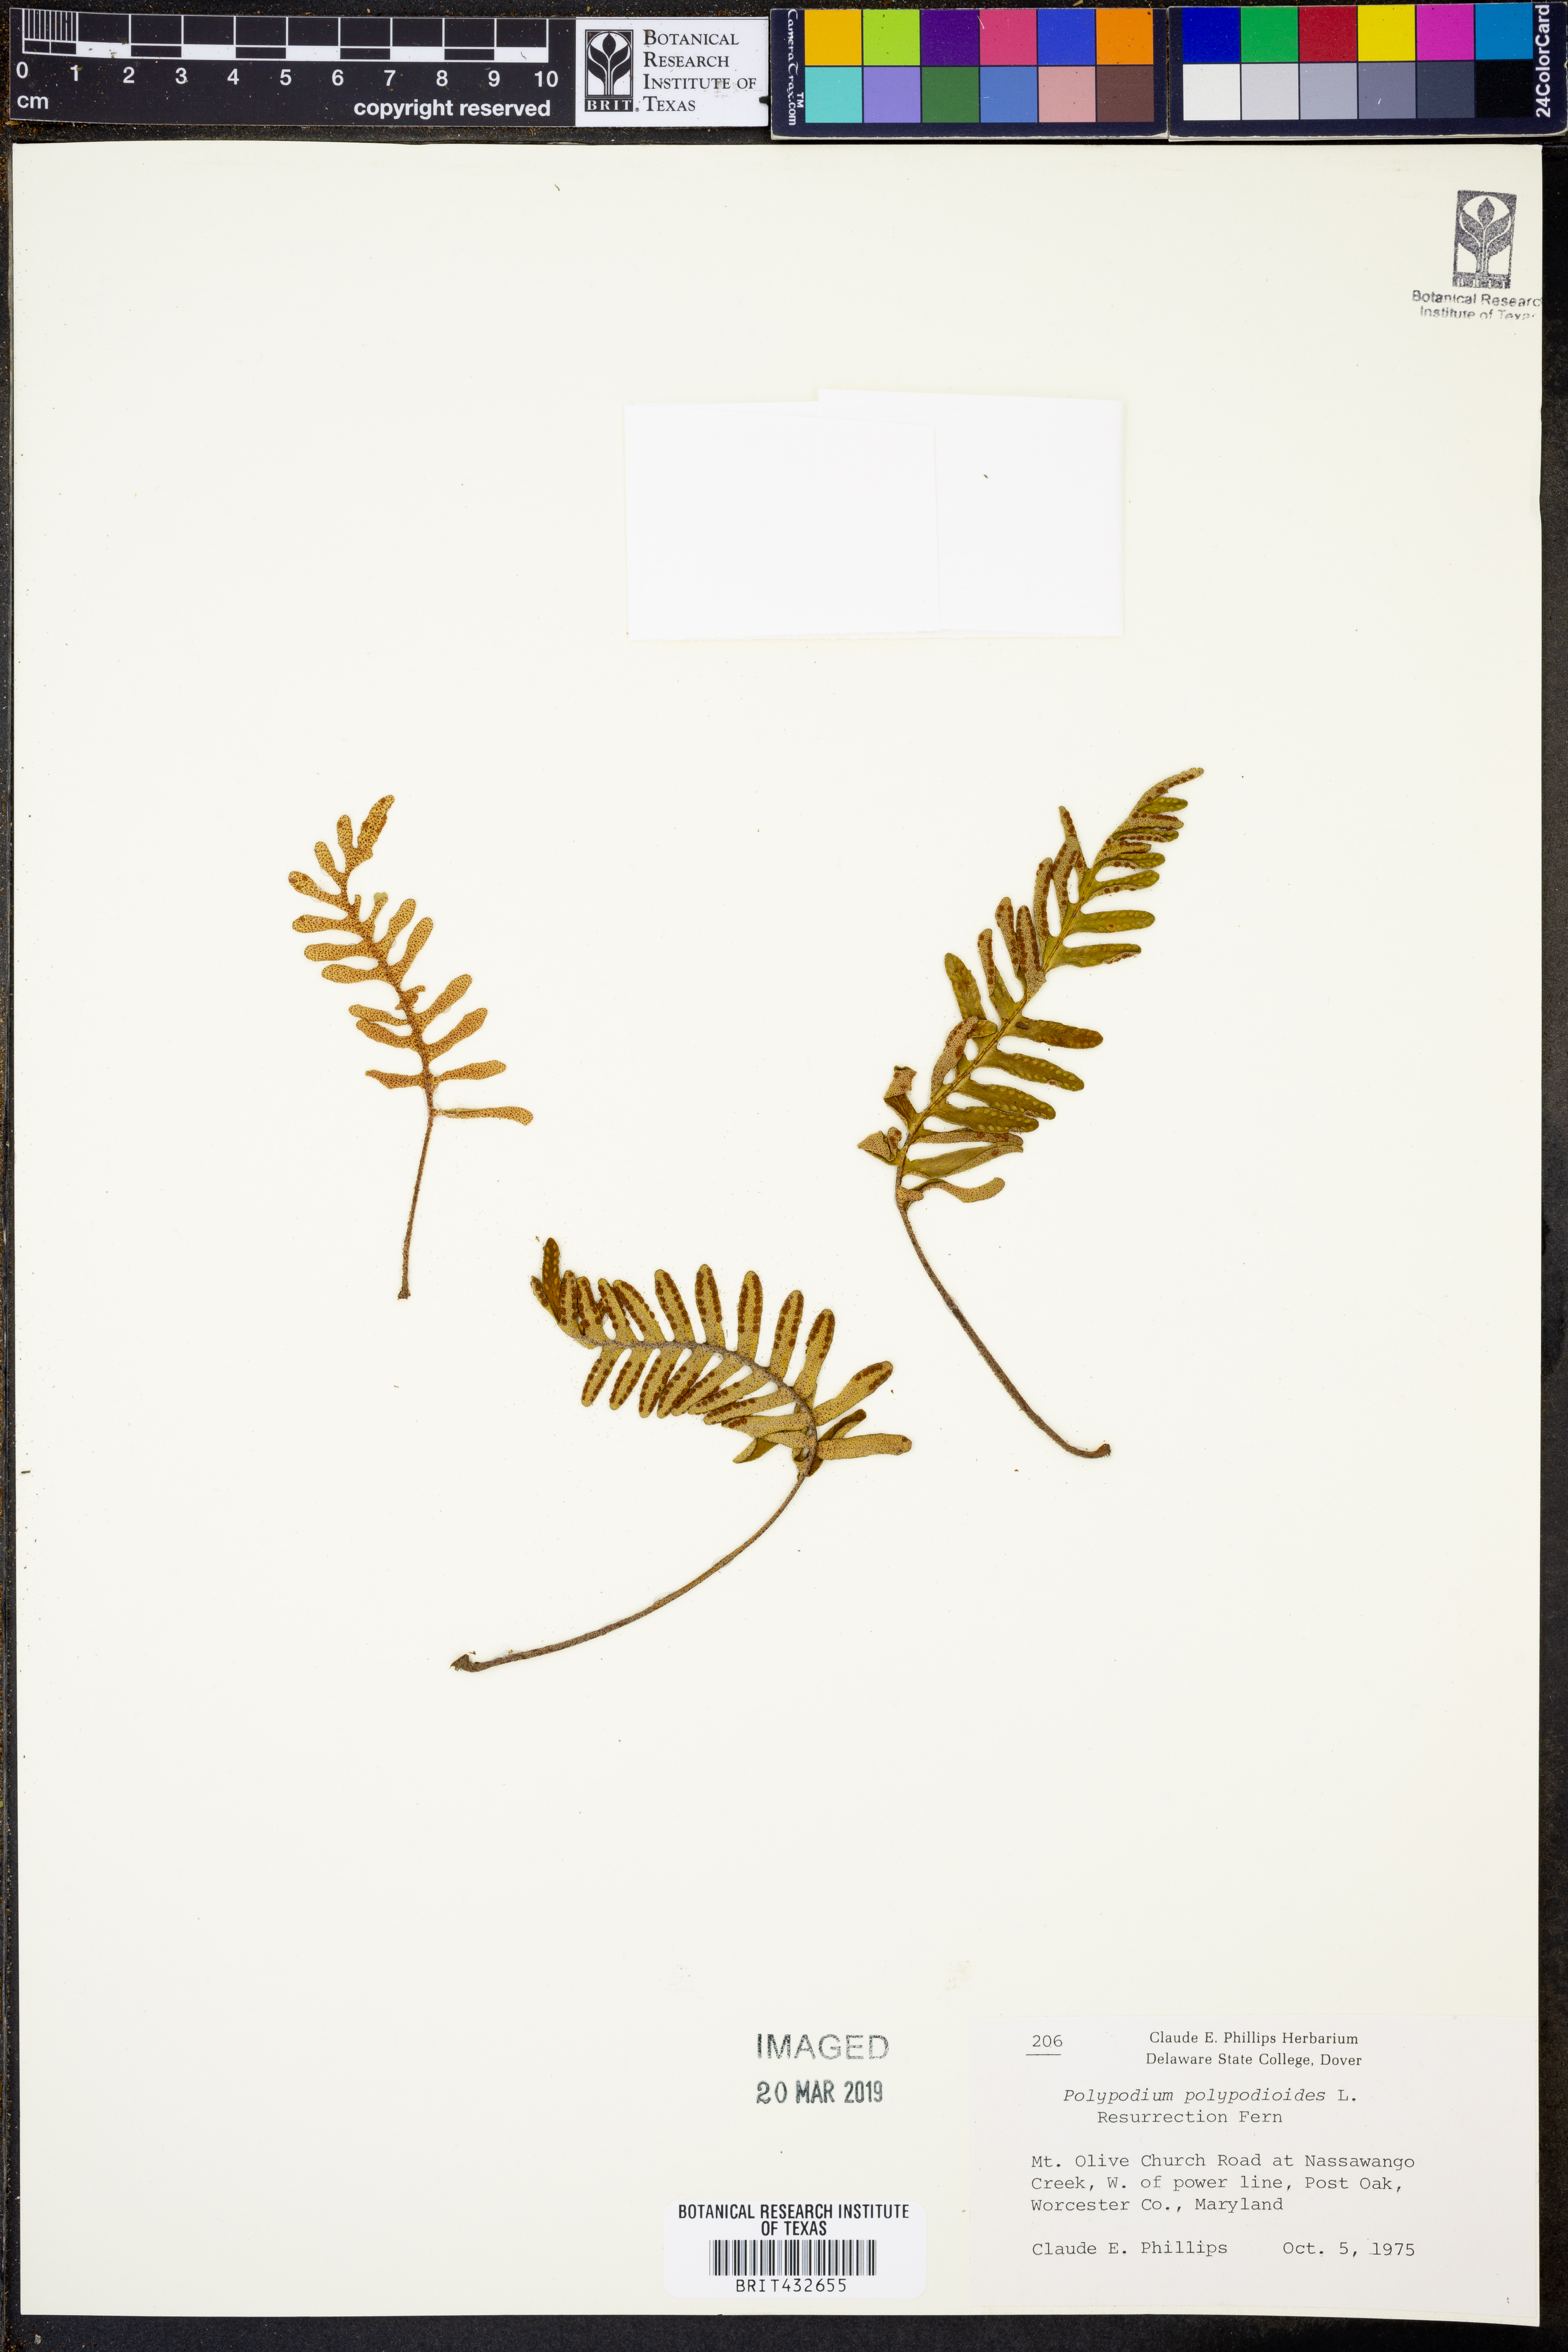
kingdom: Plantae
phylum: Tracheophyta
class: Polypodiopsida
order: Polypodiales
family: Polypodiaceae
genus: Pleopeltis
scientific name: Pleopeltis polypodioides
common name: Resurrection fern
